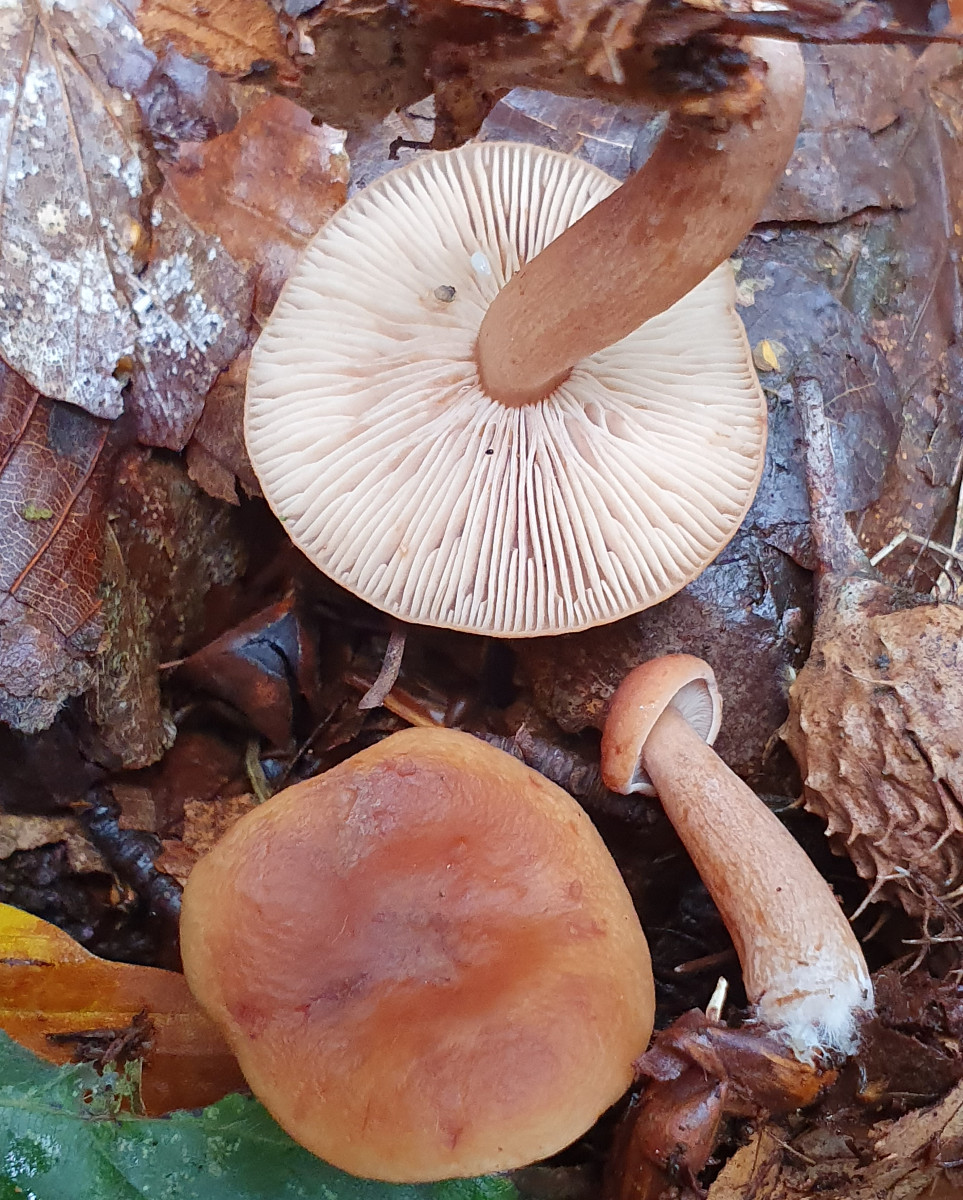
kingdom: Fungi
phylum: Basidiomycota
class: Agaricomycetes
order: Russulales
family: Russulaceae
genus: Lactarius
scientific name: Lactarius subdulcis
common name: sødlig mælkehat
